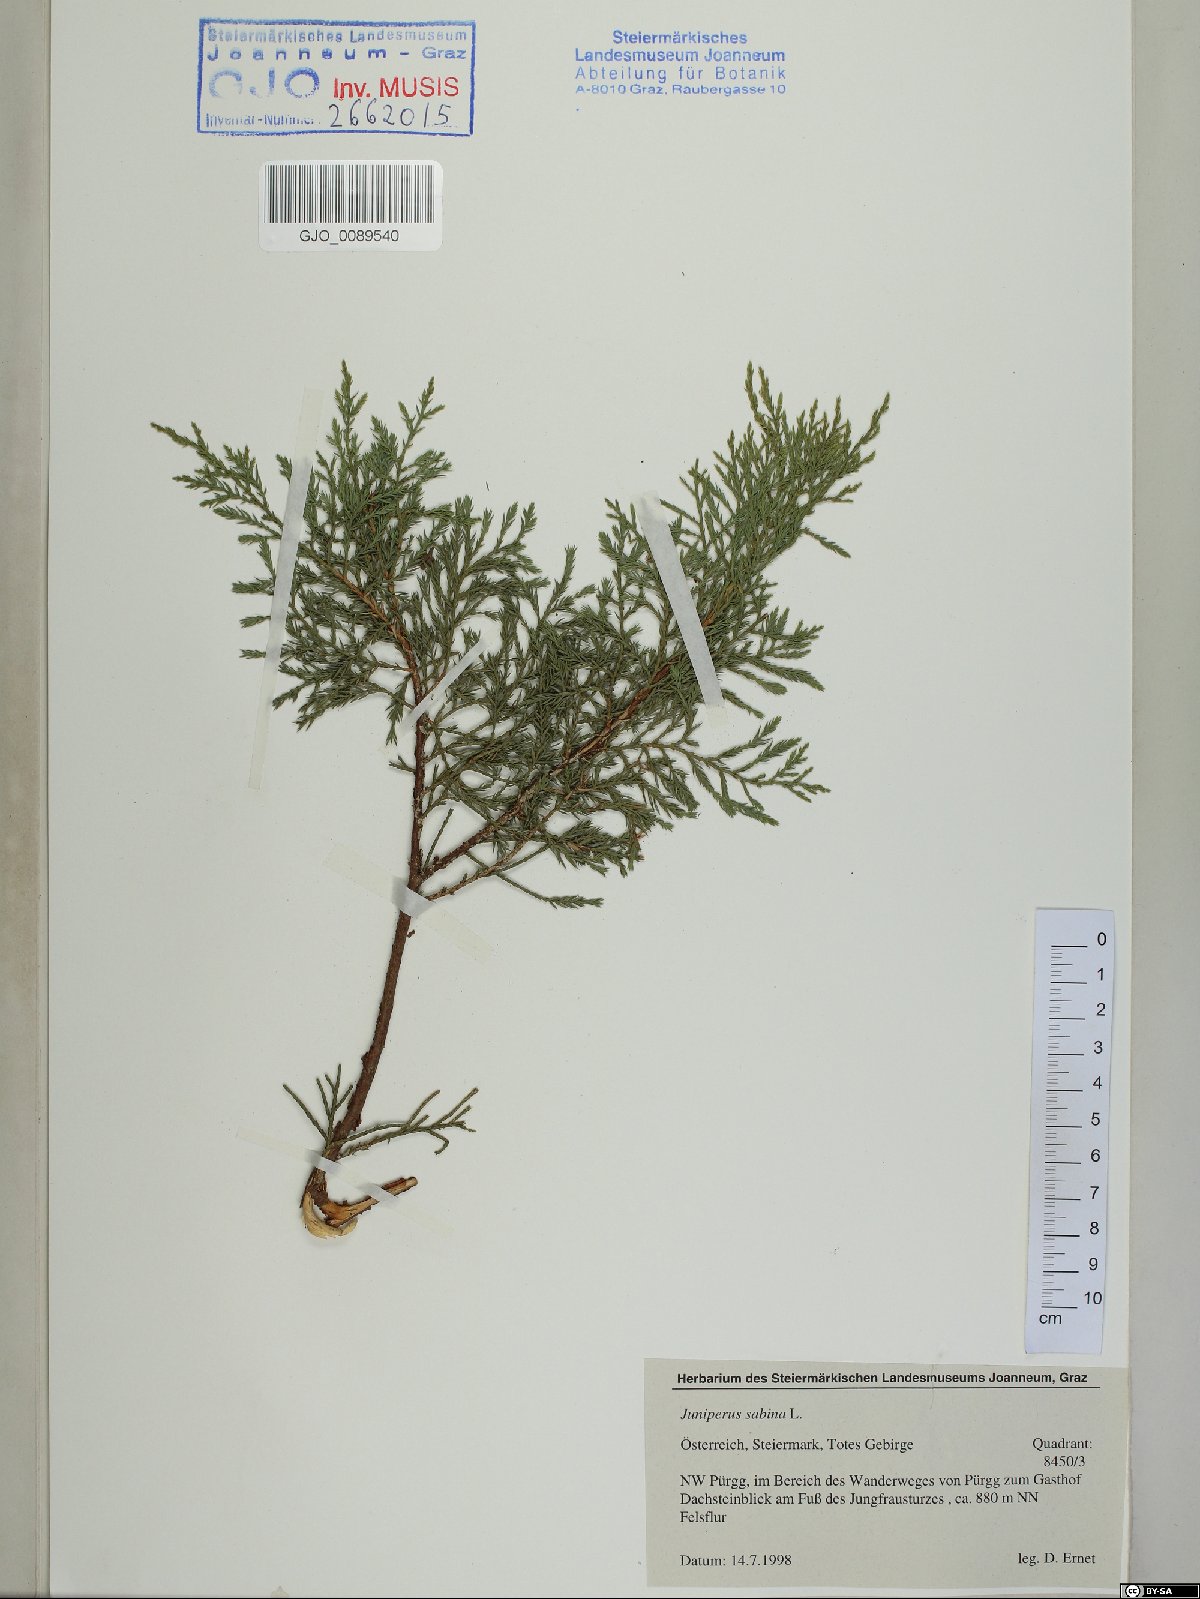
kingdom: Plantae
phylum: Tracheophyta
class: Pinopsida
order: Pinales
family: Cupressaceae
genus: Juniperus
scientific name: Juniperus sabina
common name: Savin
